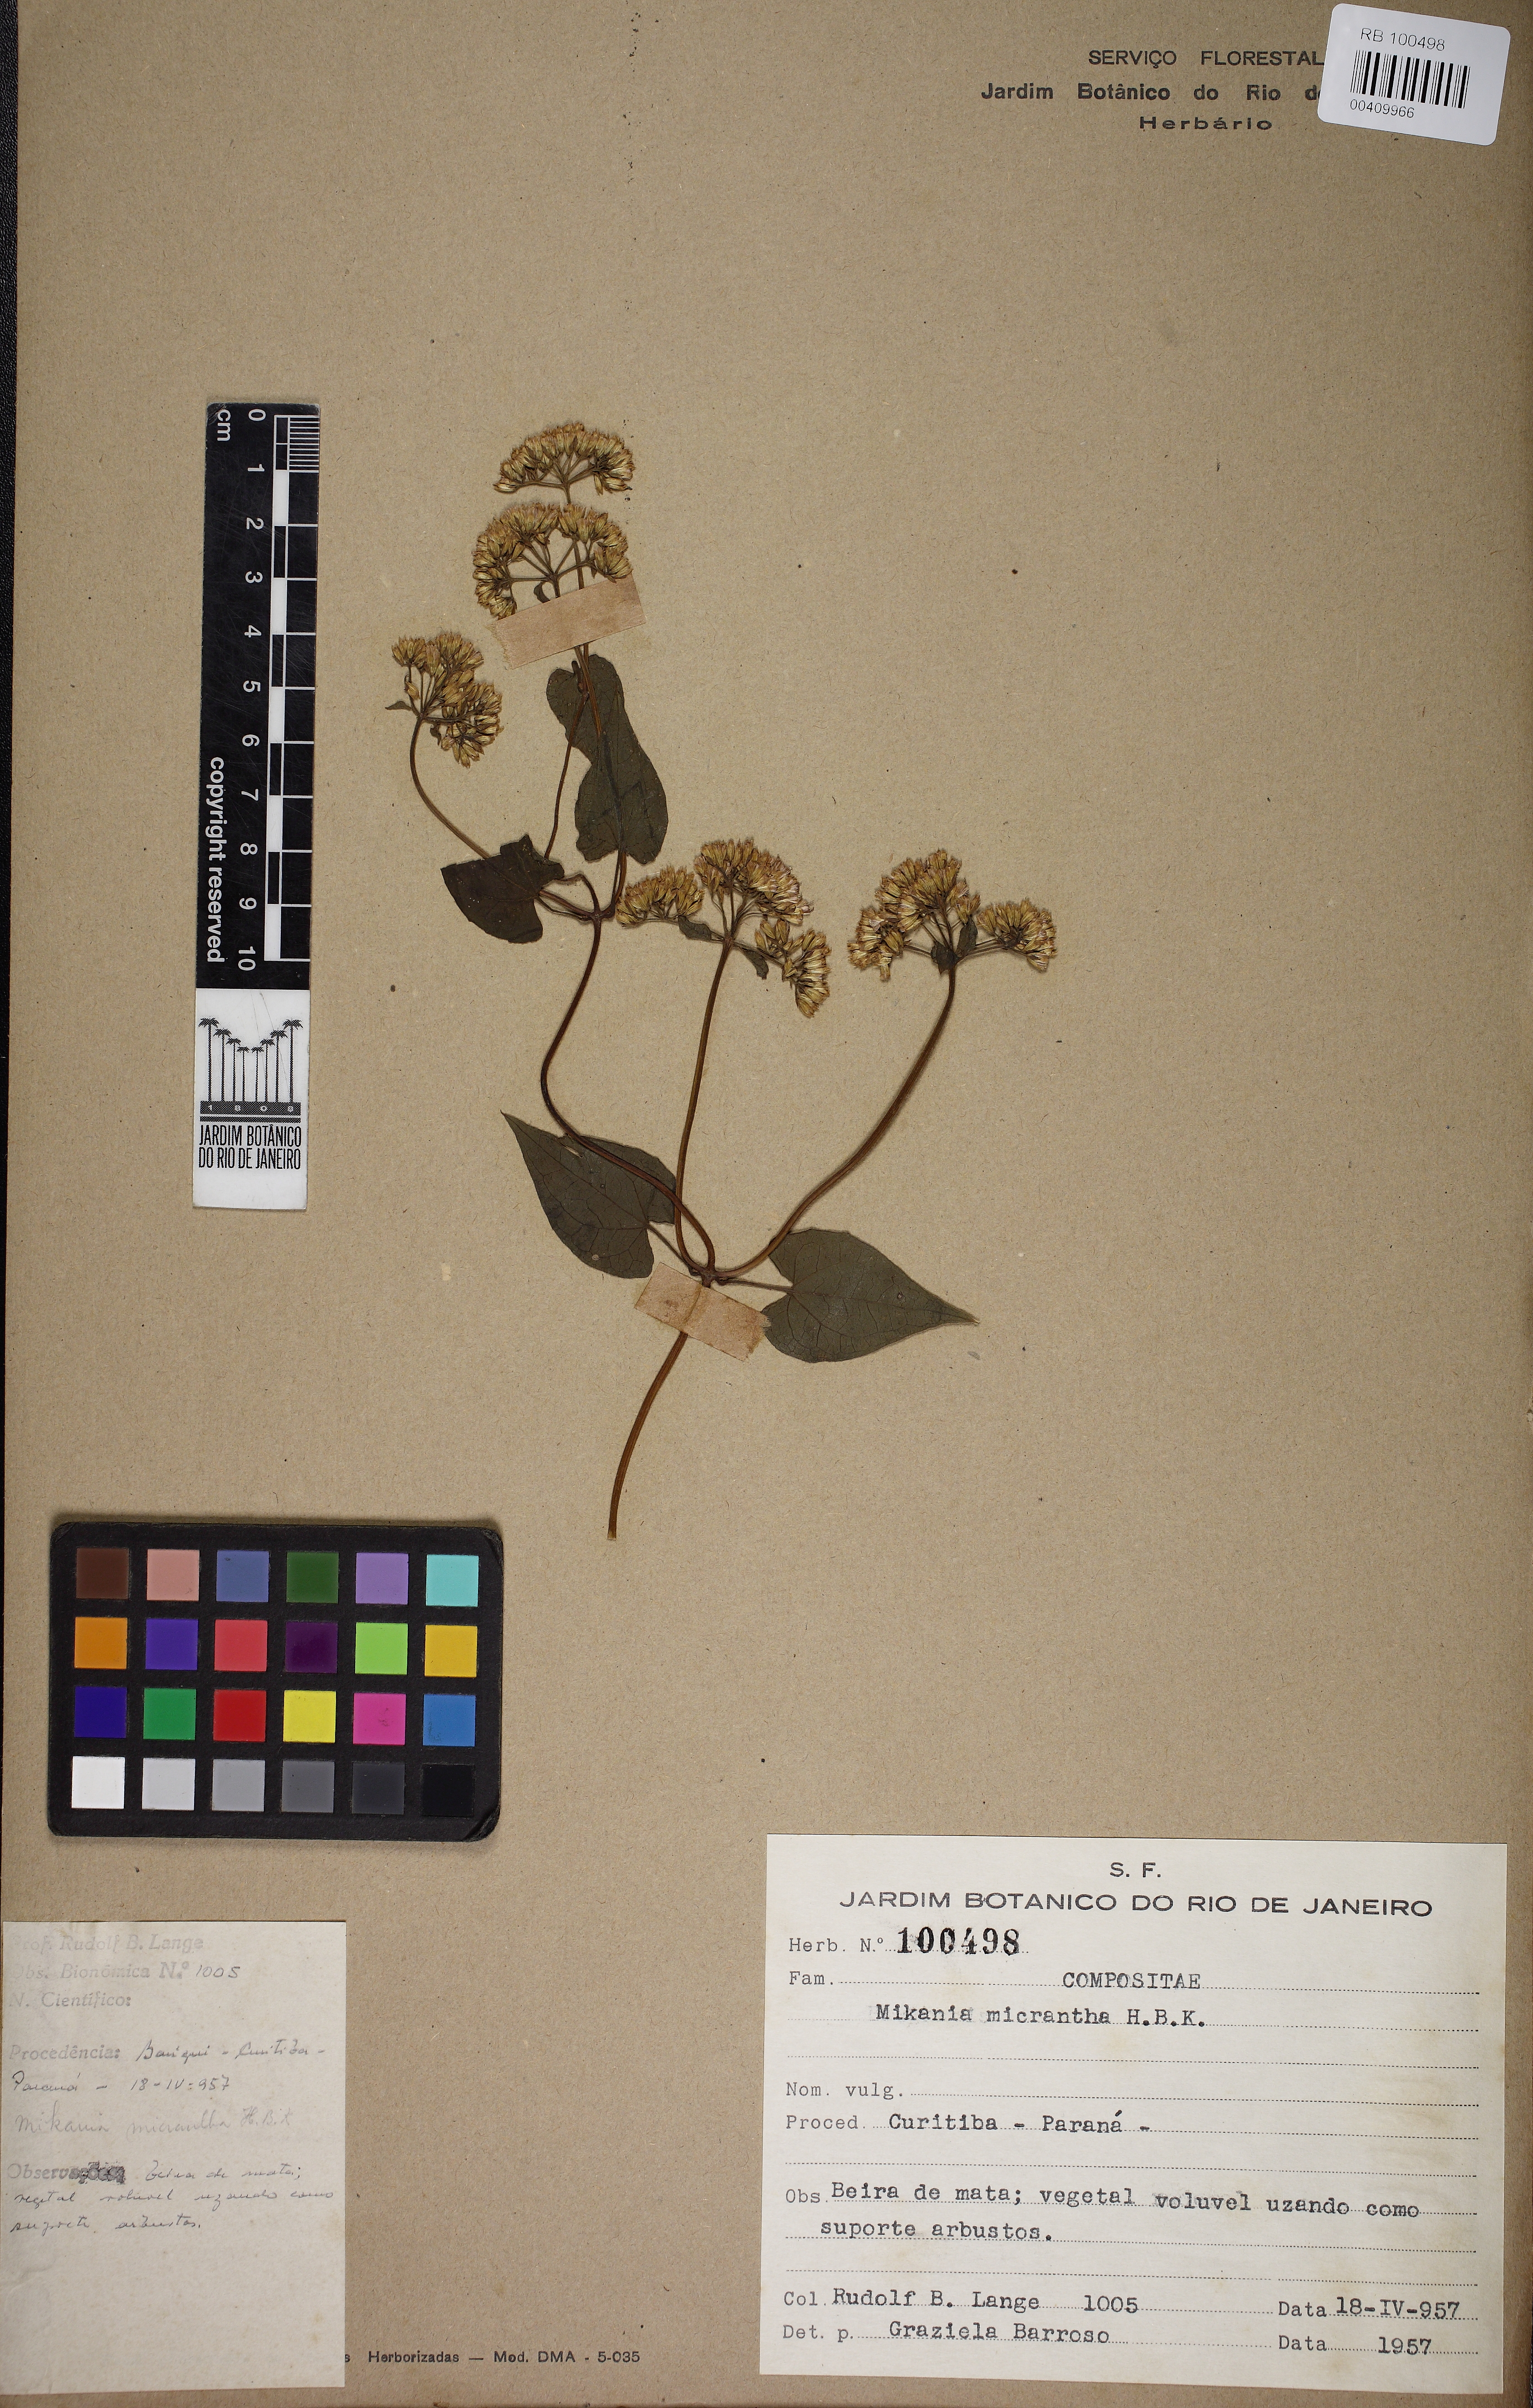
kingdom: Plantae
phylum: Tracheophyta
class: Magnoliopsida
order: Asterales
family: Asteraceae
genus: Mikania
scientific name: Mikania micrantha
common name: Mile-a-minute
